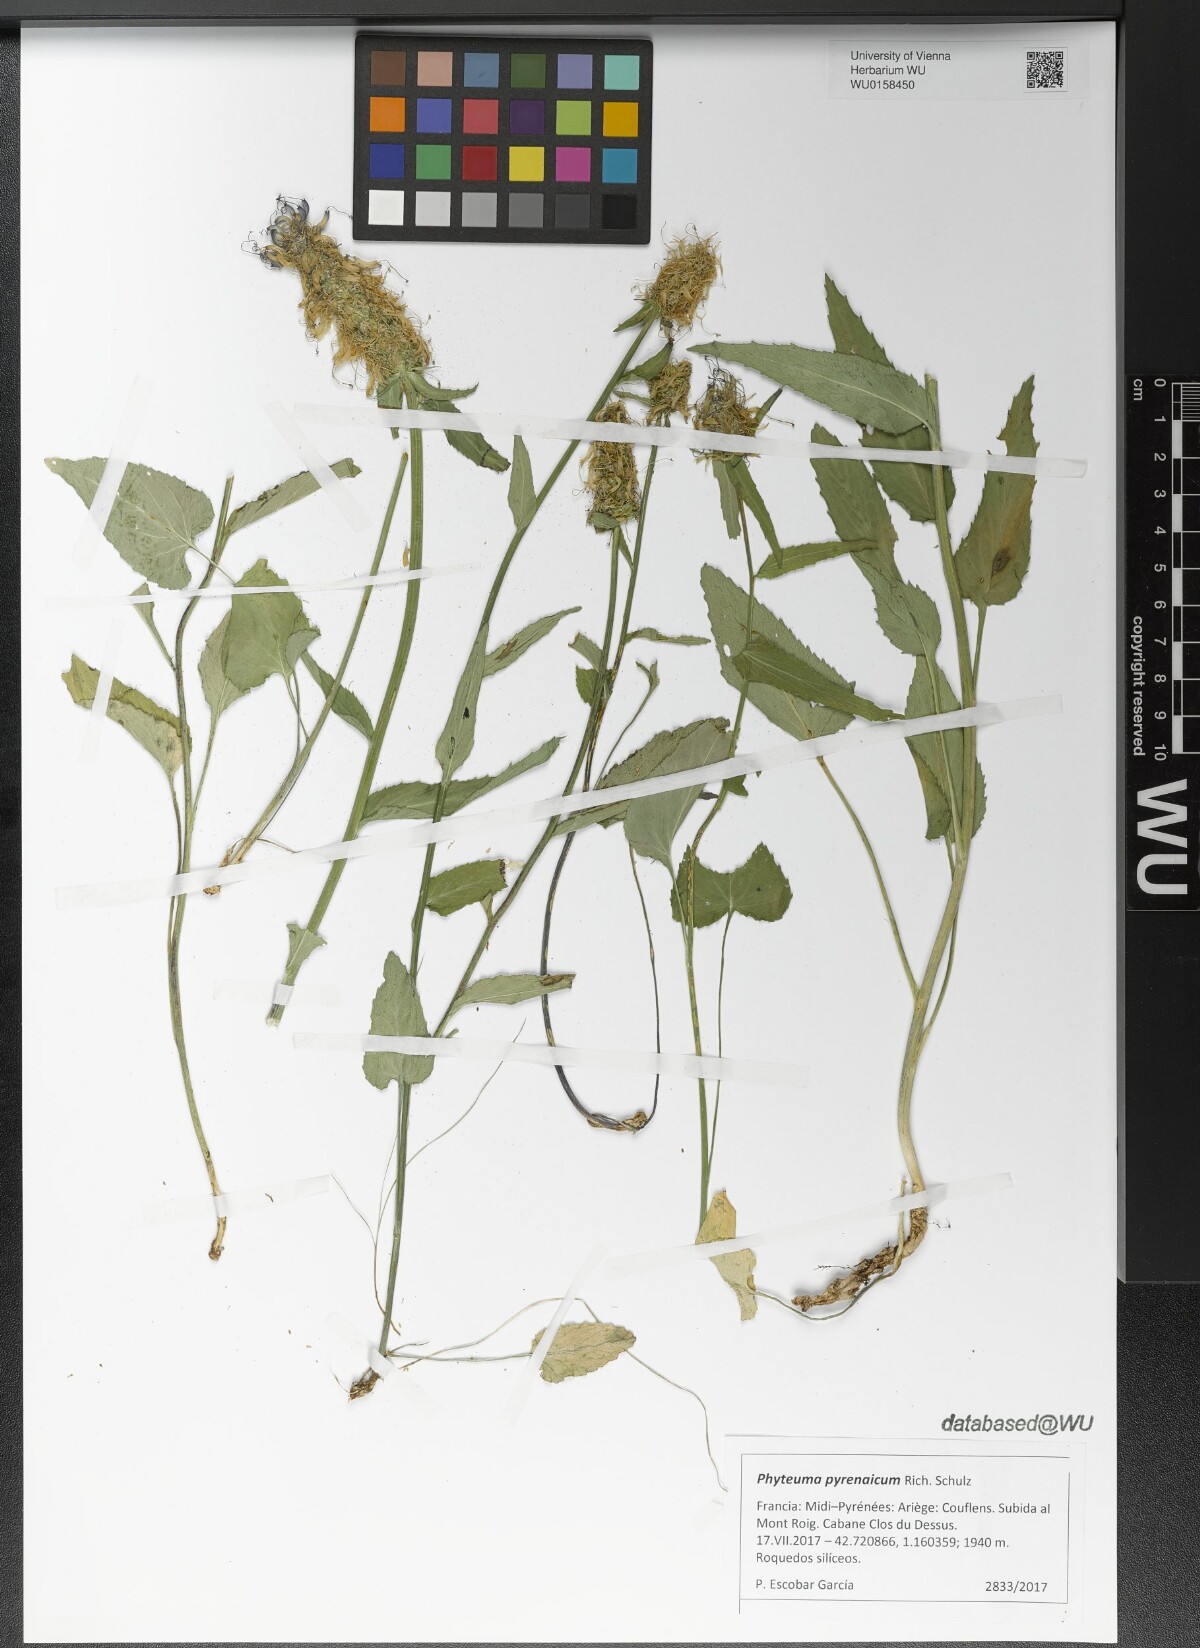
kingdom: Plantae
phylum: Tracheophyta
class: Magnoliopsida
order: Asterales
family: Campanulaceae
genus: Phyteuma
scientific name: Phyteuma spicatum
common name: Spiked rampion
